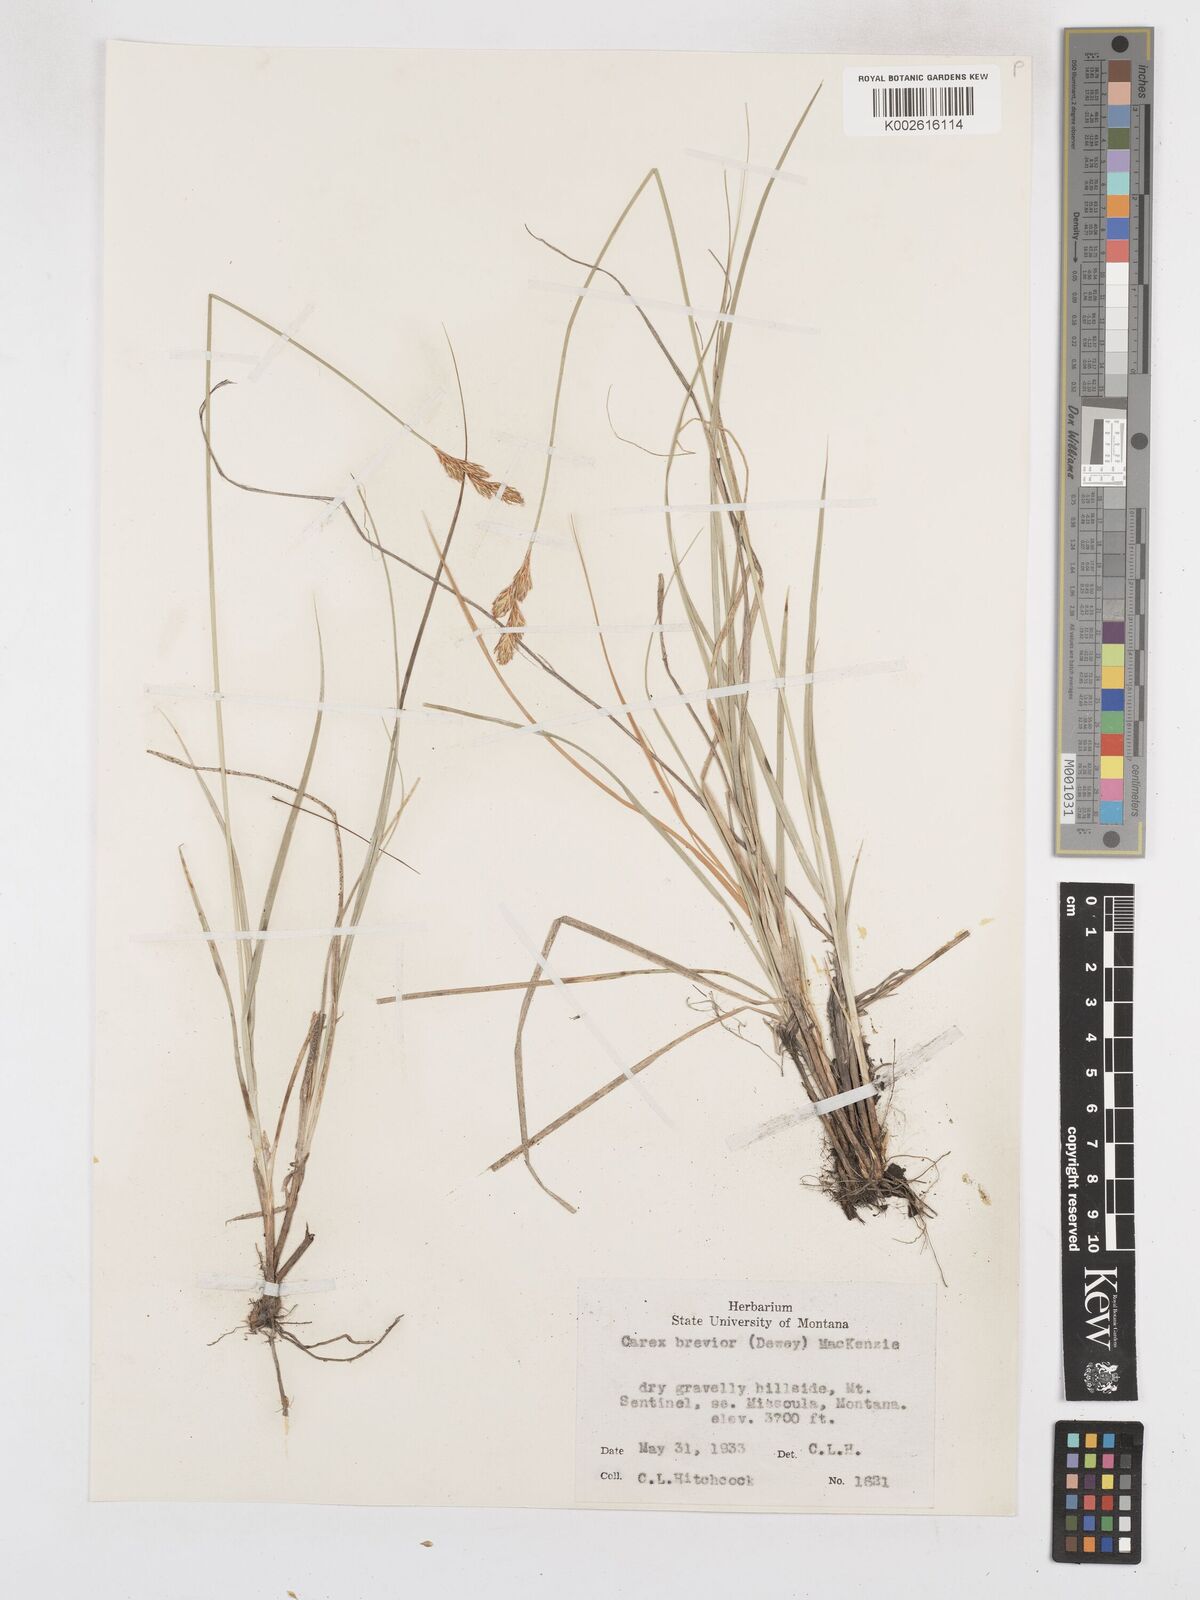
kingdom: Plantae
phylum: Tracheophyta
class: Liliopsida
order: Poales
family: Cyperaceae
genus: Carex
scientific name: Carex brevior
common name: Brevior sedge
